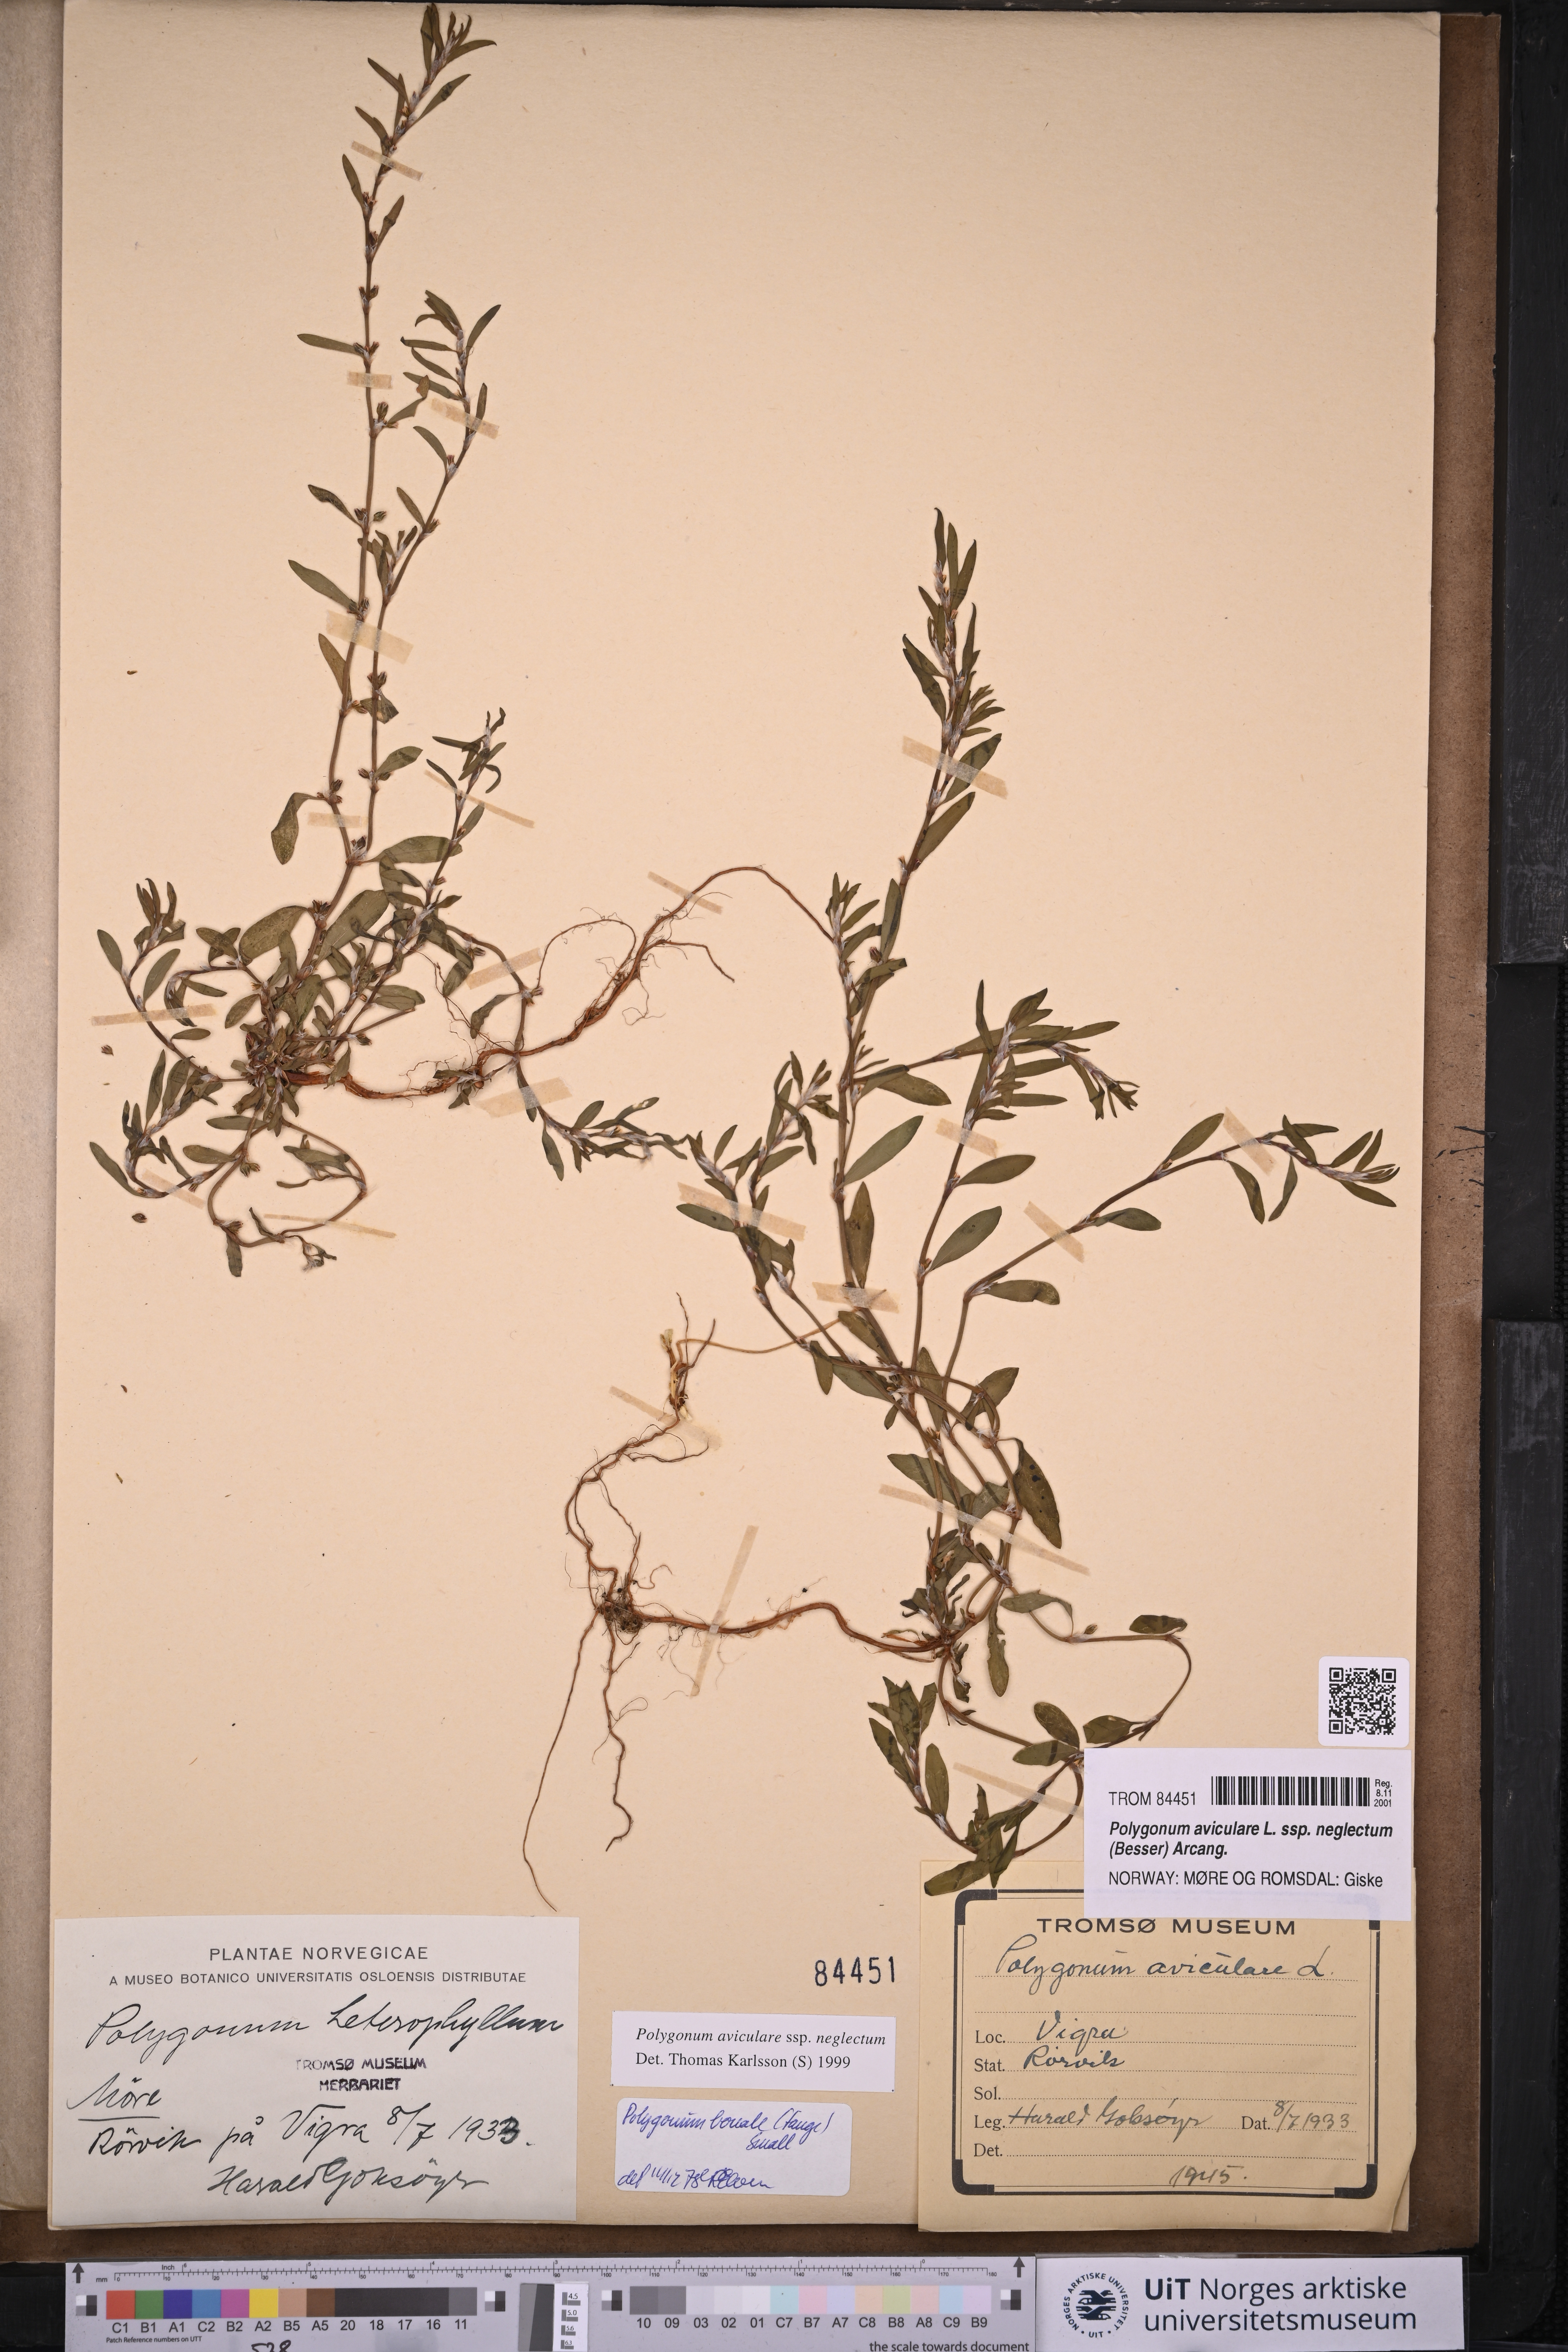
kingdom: Plantae
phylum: Tracheophyta
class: Magnoliopsida
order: Caryophyllales
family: Polygonaceae
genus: Polygonum
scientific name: Polygonum aviculare
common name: Prostrate knotweed
